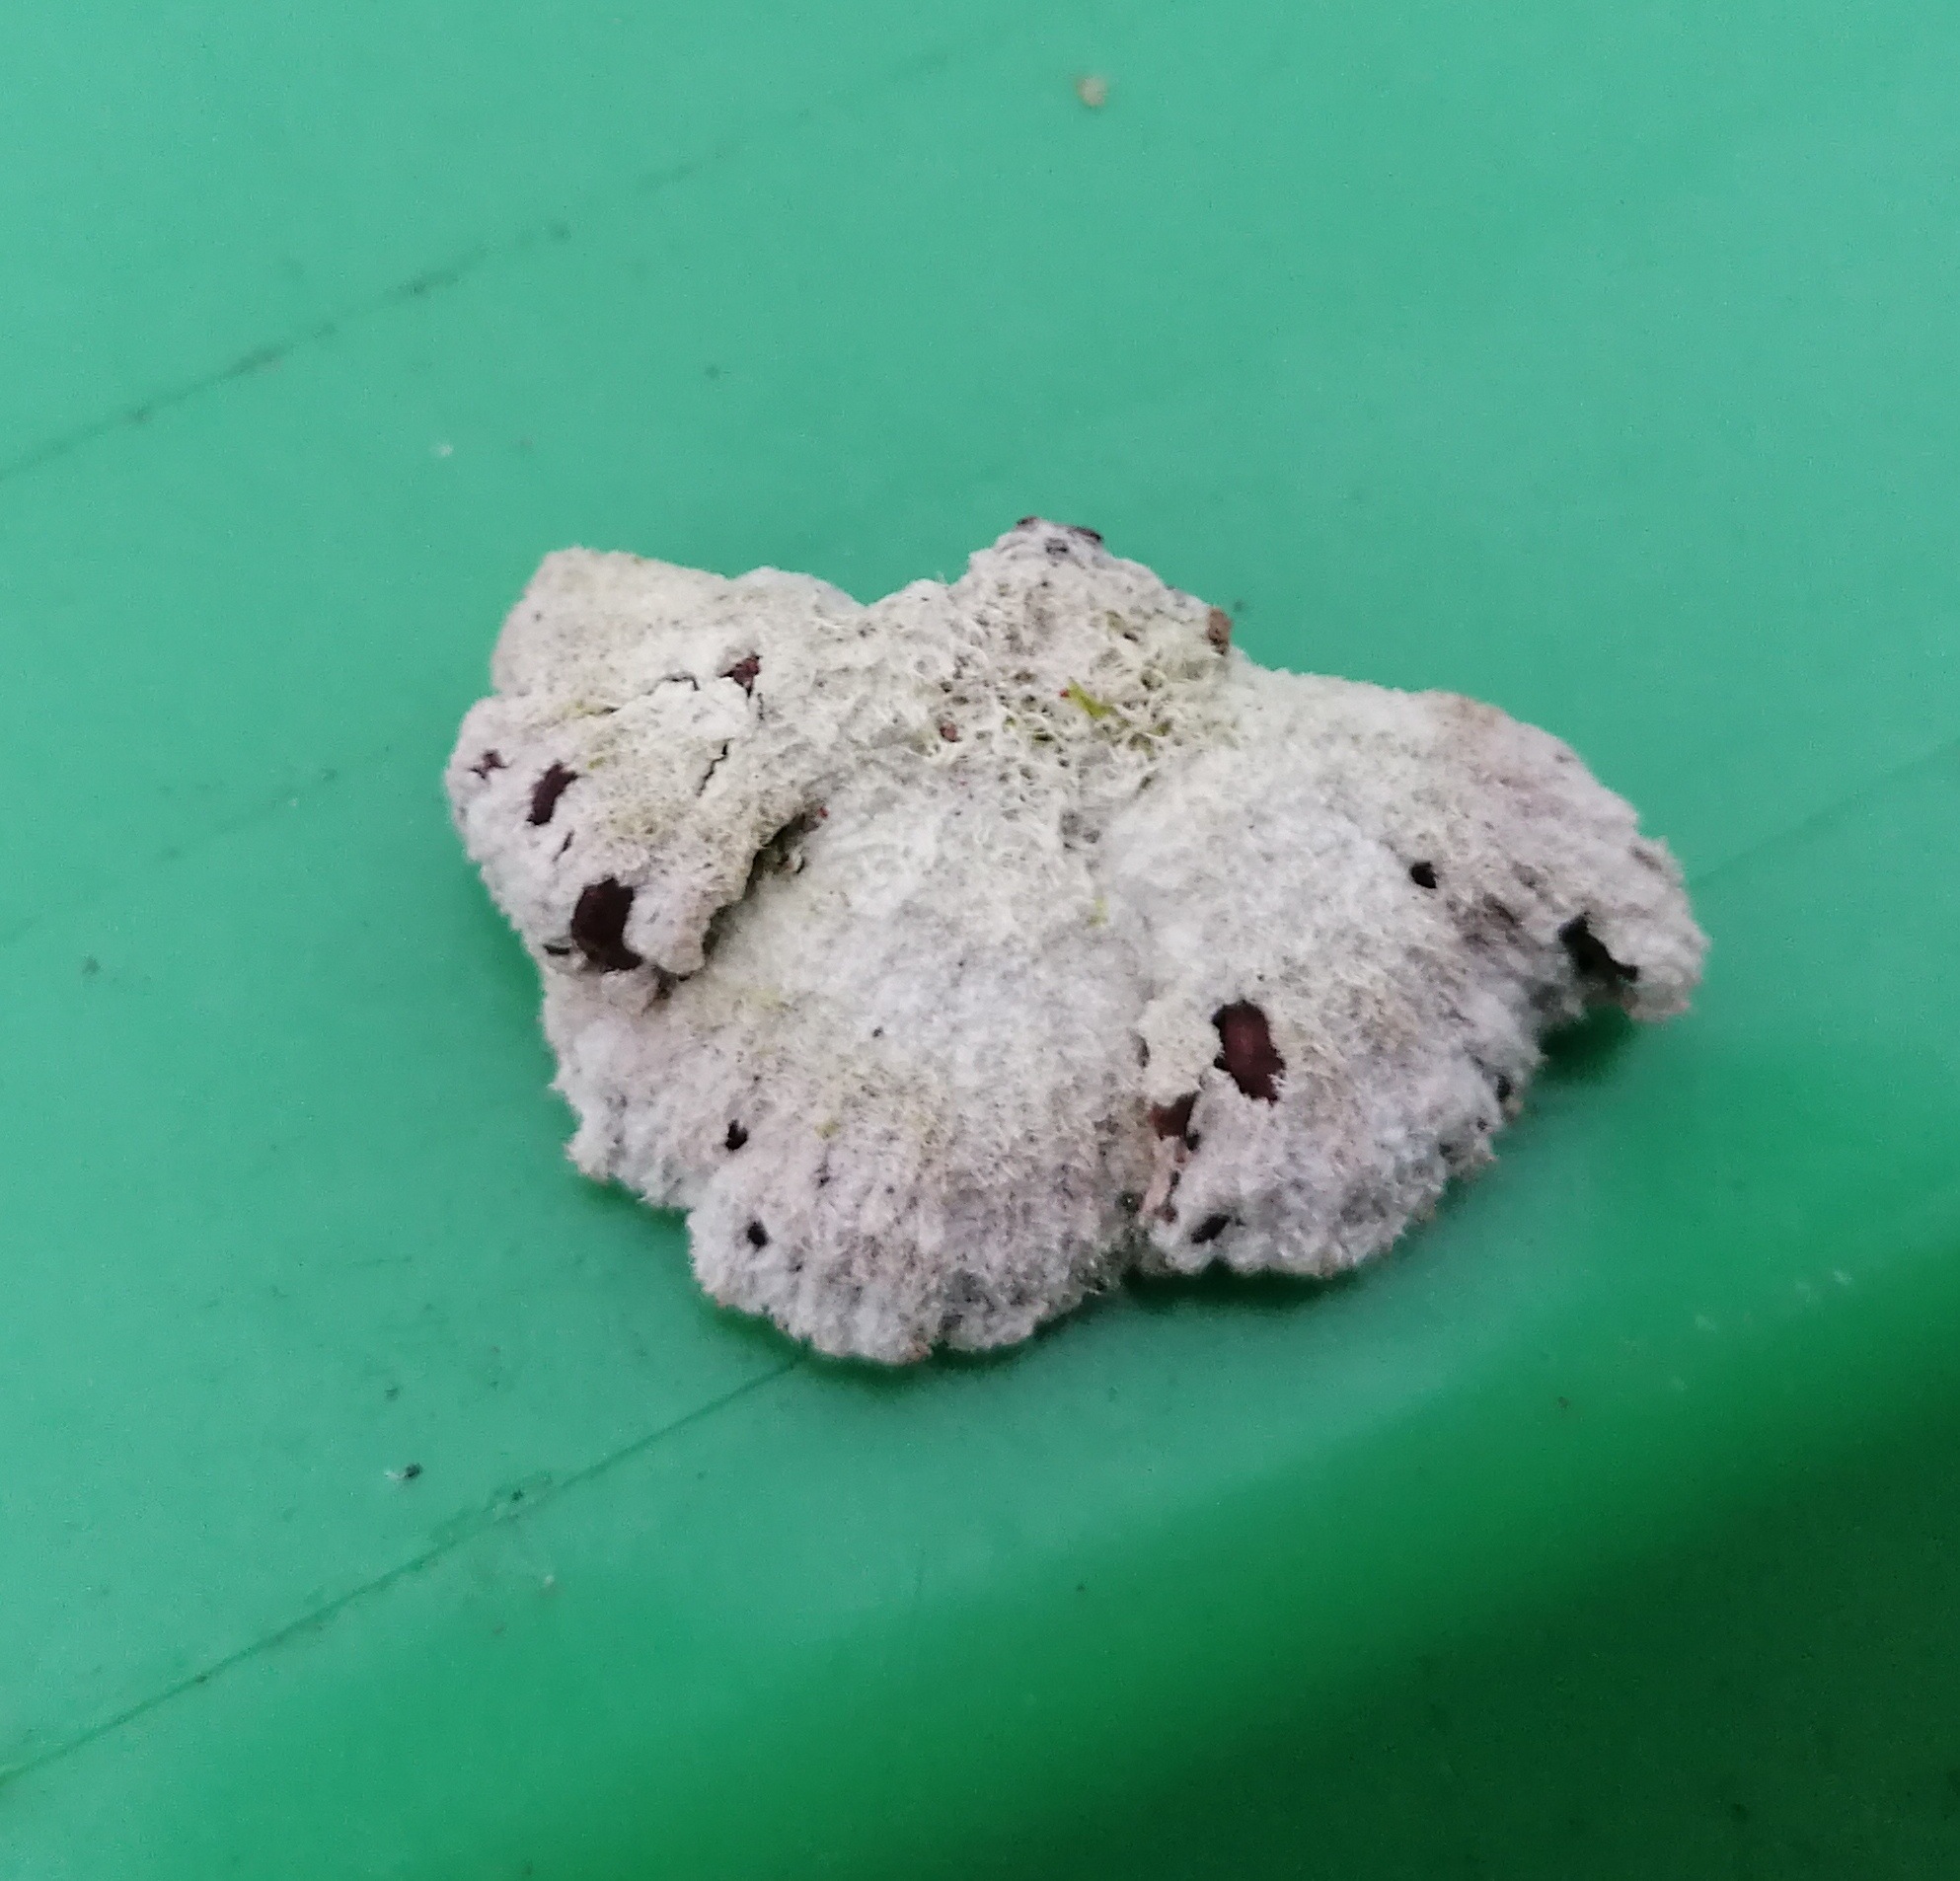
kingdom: Fungi
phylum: Basidiomycota
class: Agaricomycetes
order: Agaricales
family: Schizophyllaceae
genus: Schizophyllum
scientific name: Schizophyllum commune
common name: kløvblad
